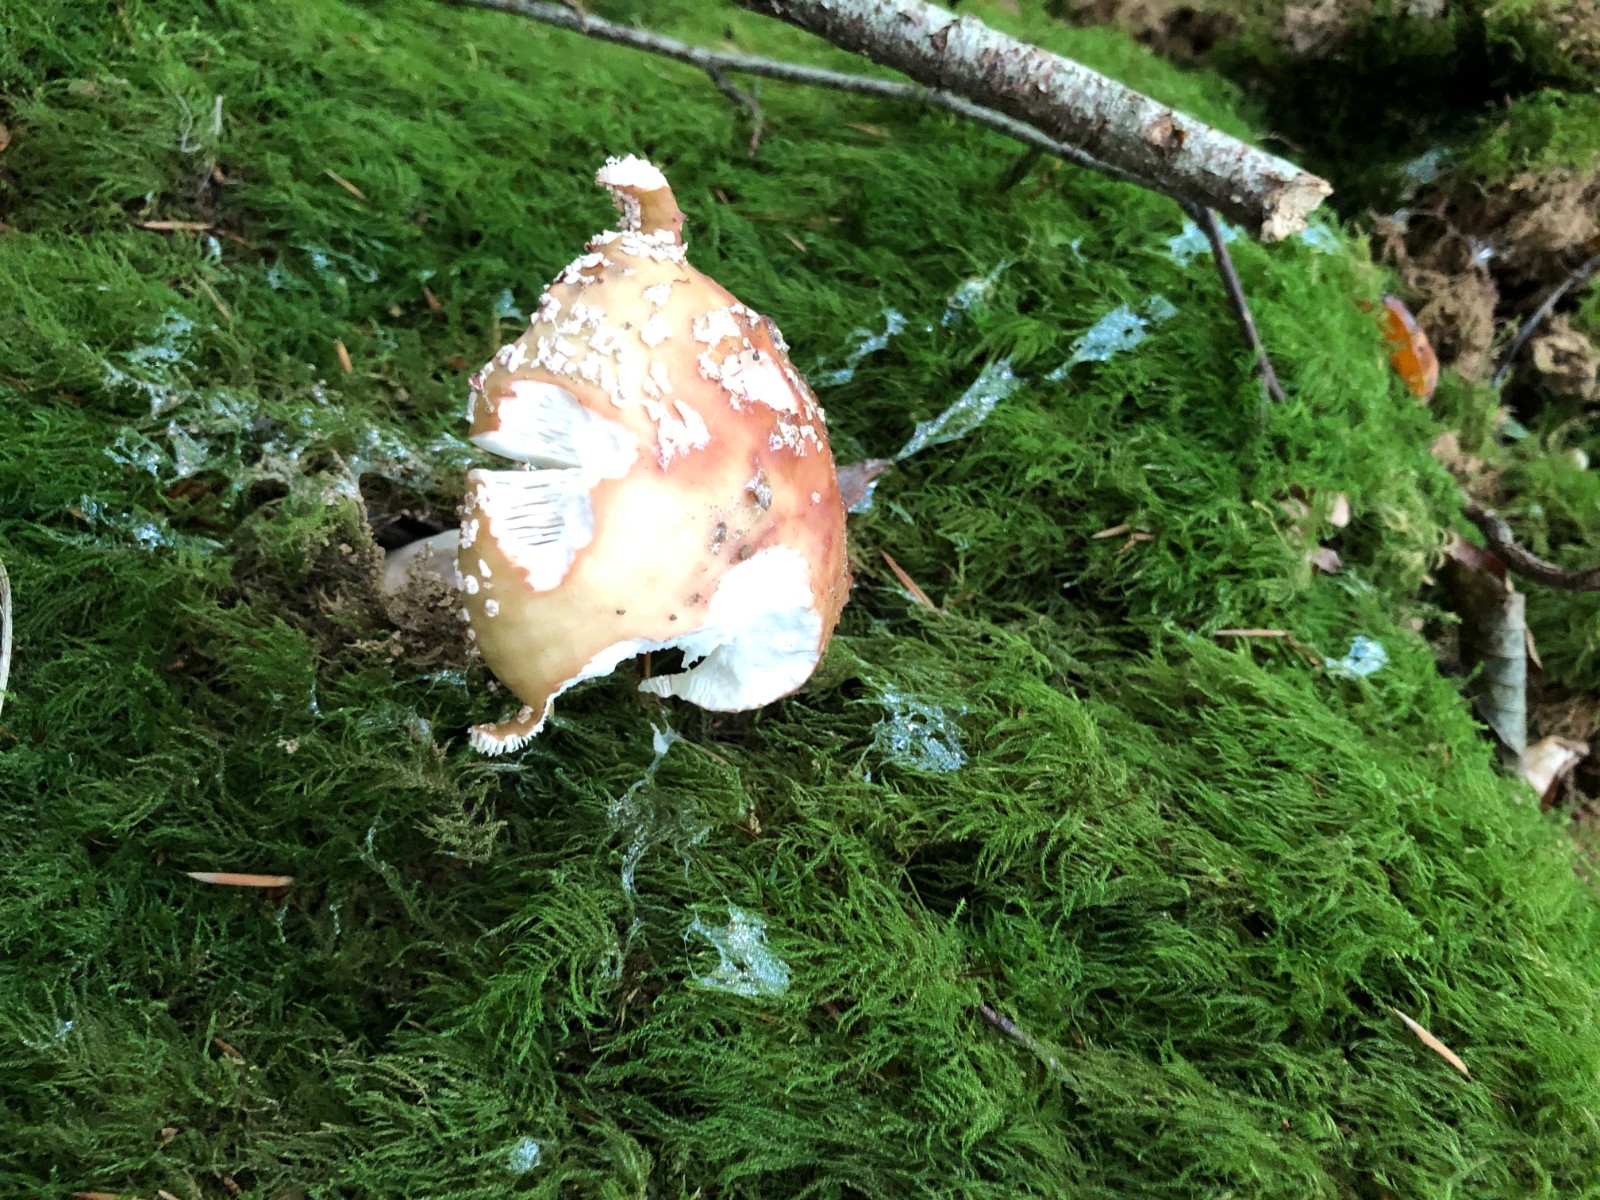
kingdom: Fungi
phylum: Basidiomycota
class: Agaricomycetes
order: Agaricales
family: Amanitaceae
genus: Amanita
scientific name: Amanita rubescens
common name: rødmende fluesvamp
